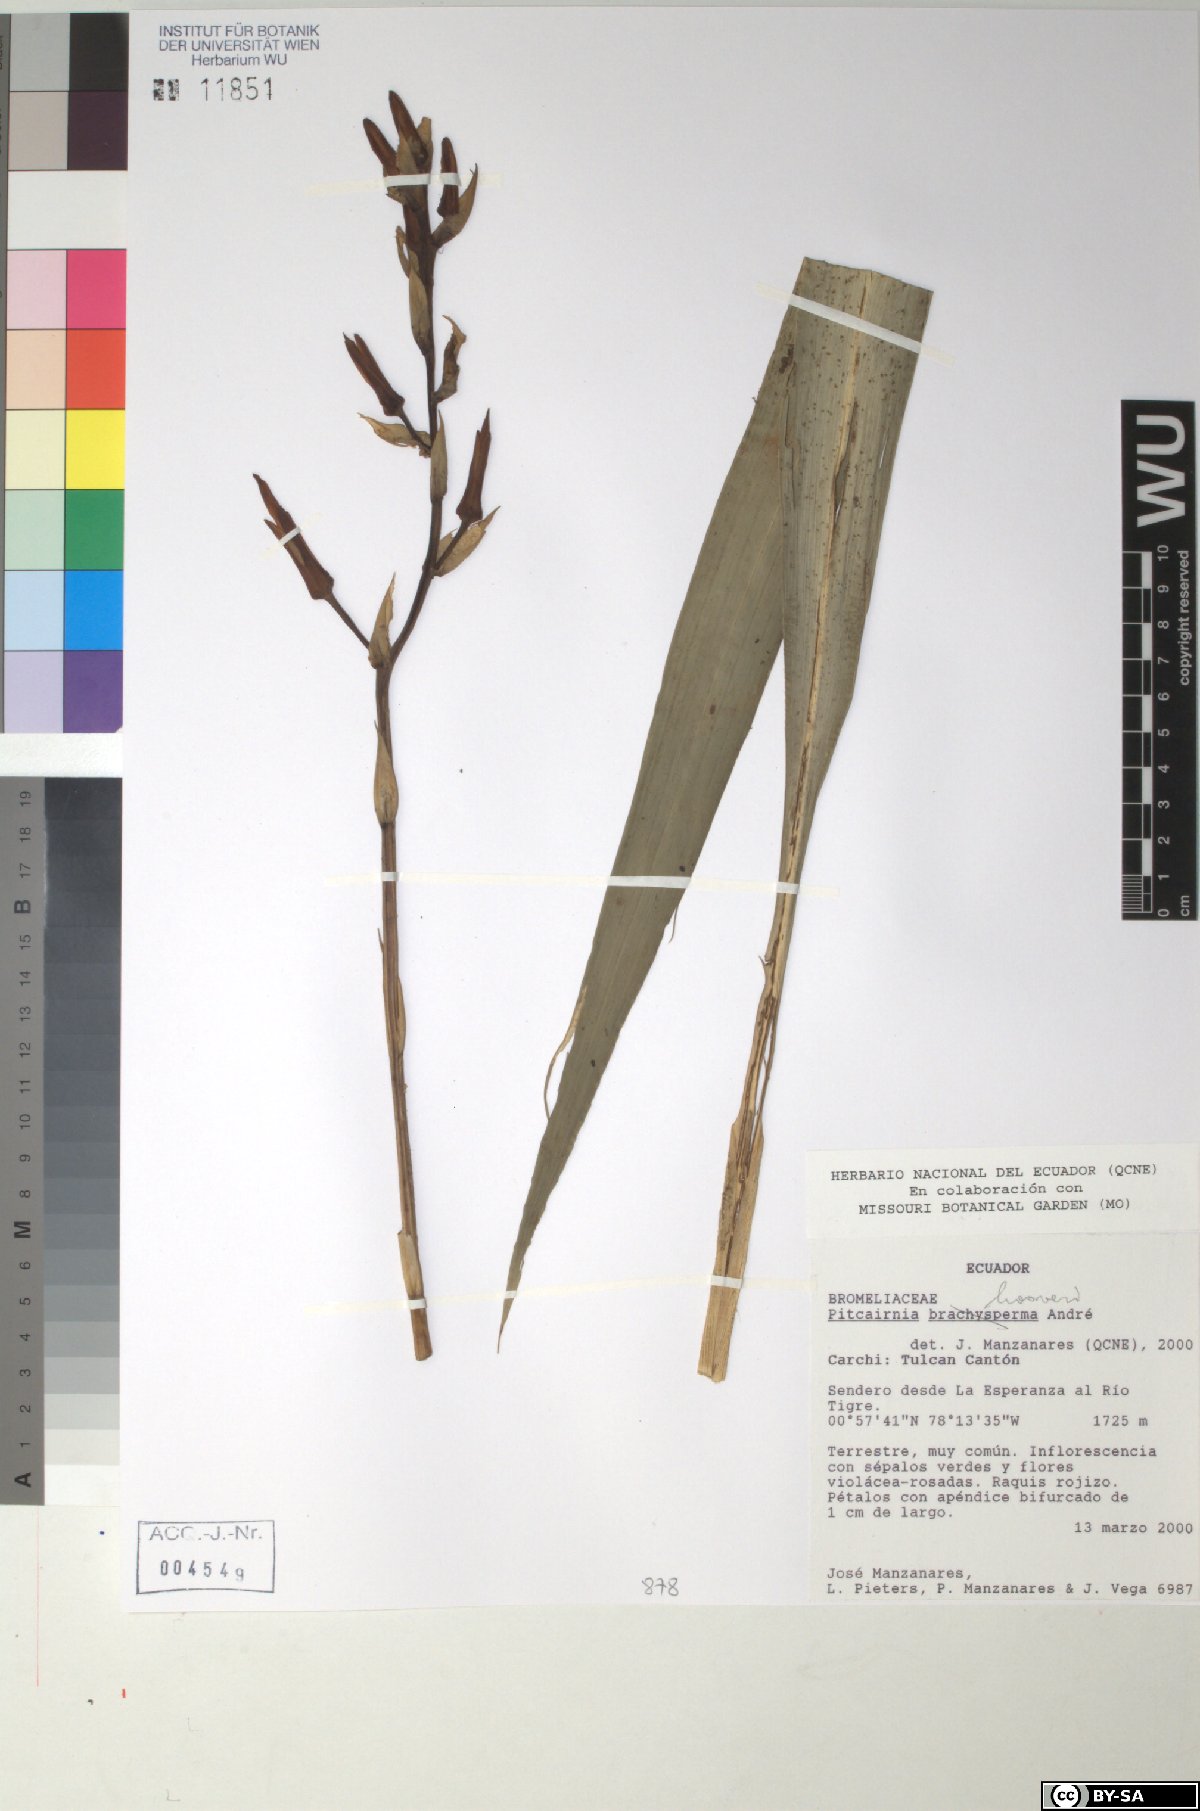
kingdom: Plantae
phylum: Tracheophyta
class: Liliopsida
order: Poales
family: Bromeliaceae
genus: Pitcairnia
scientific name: Pitcairnia brachysperma
